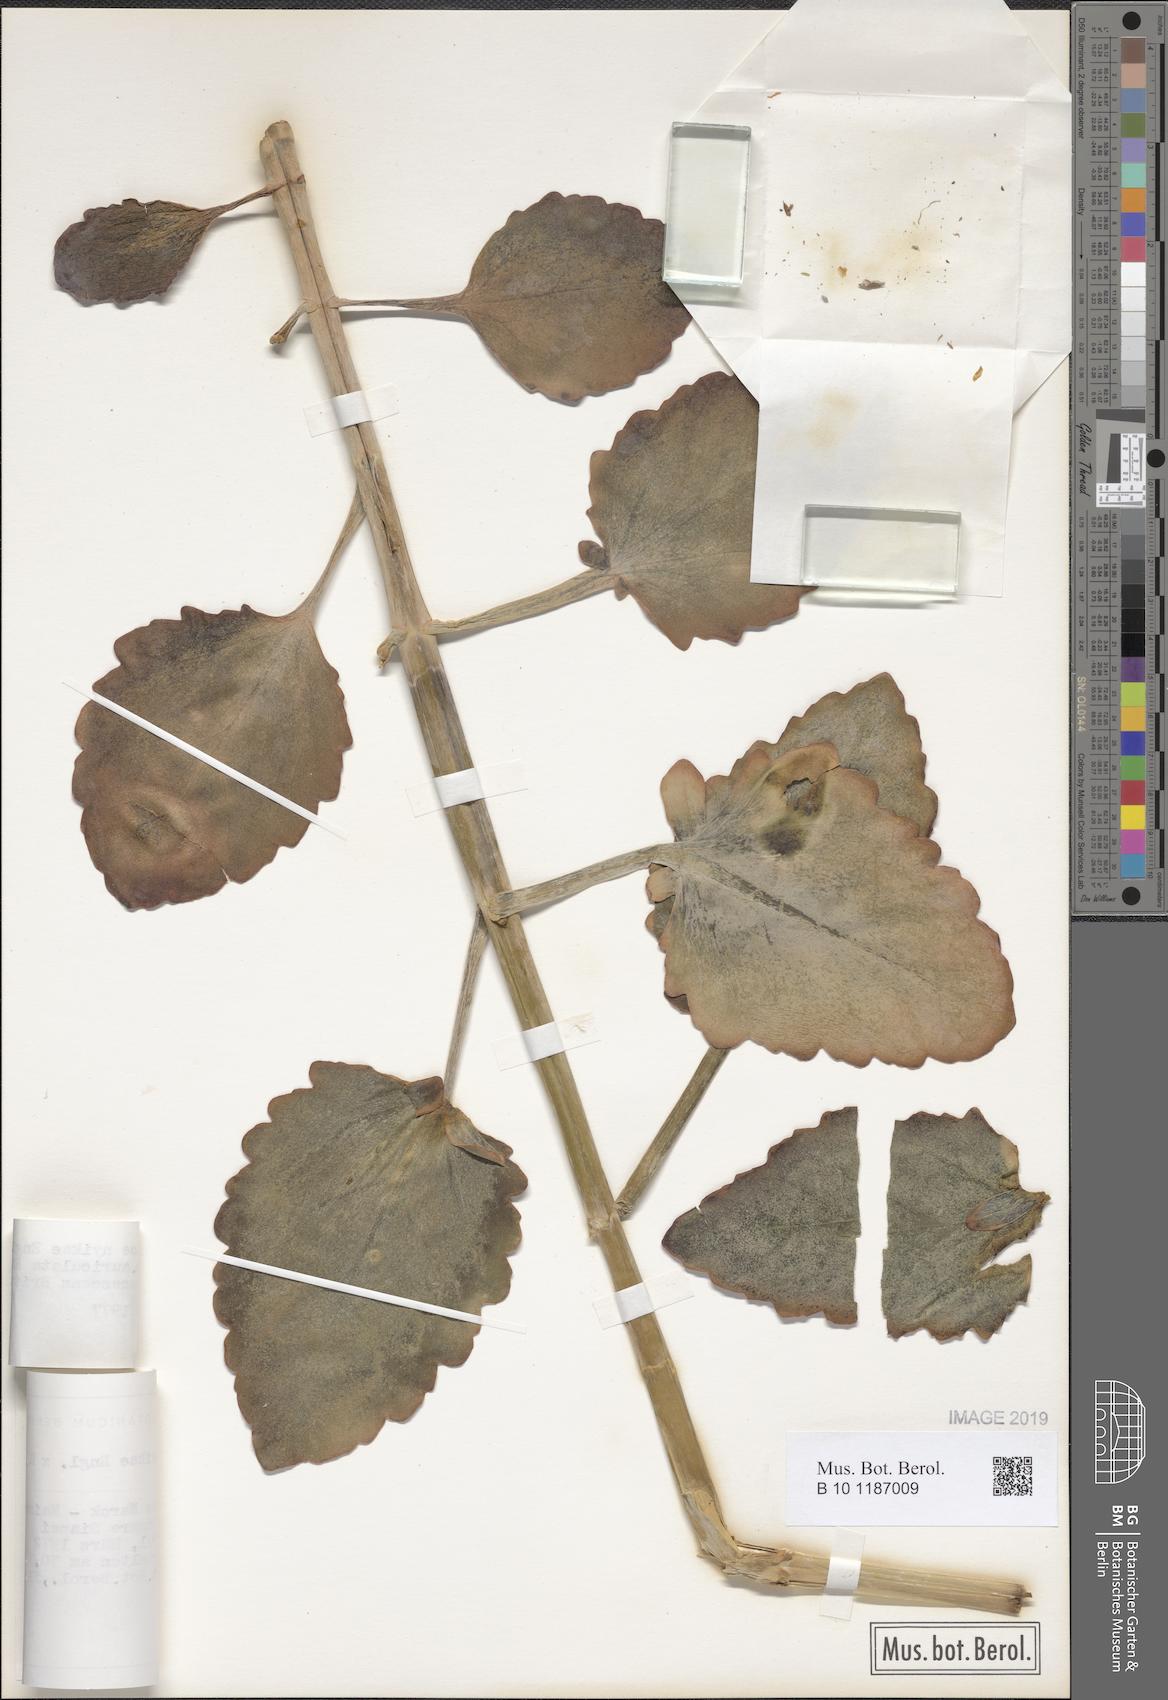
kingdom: Plantae
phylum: Tracheophyta
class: Magnoliopsida
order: Saxifragales
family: Crassulaceae
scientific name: Crassulaceae
